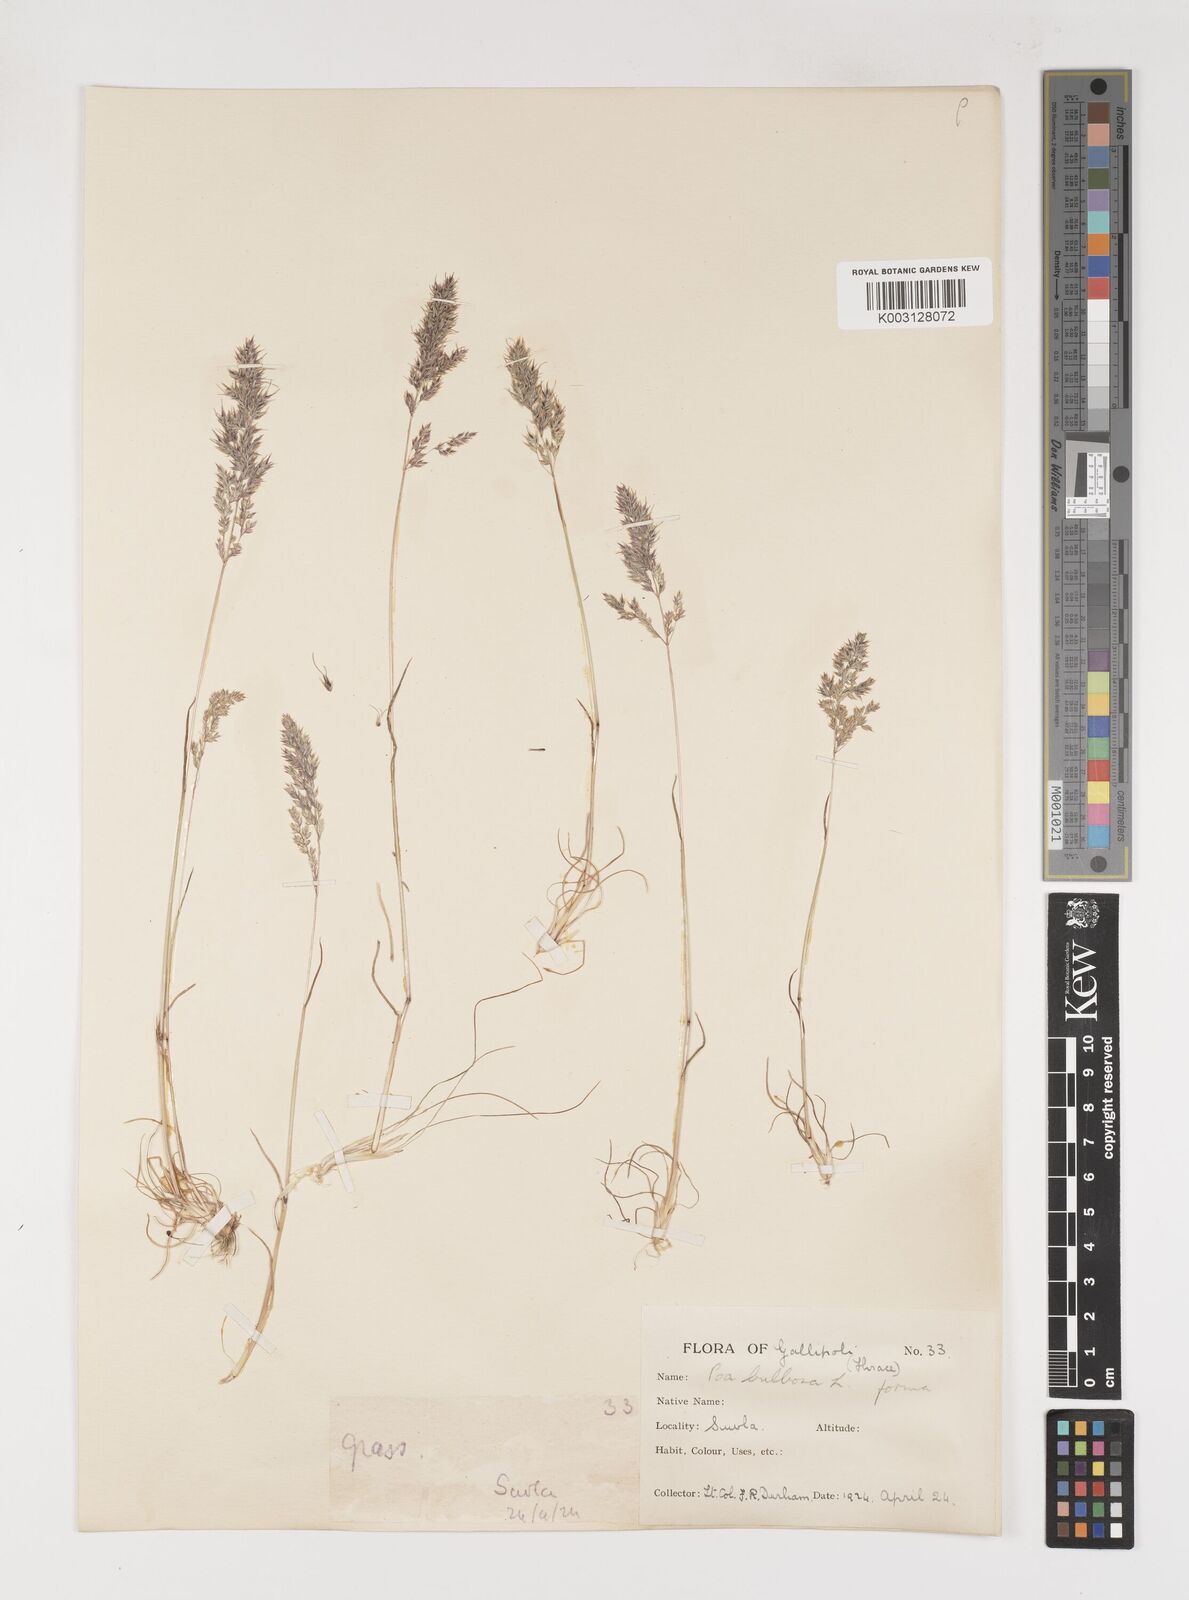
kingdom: Plantae
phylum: Tracheophyta
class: Liliopsida
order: Poales
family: Poaceae
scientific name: Poaceae
